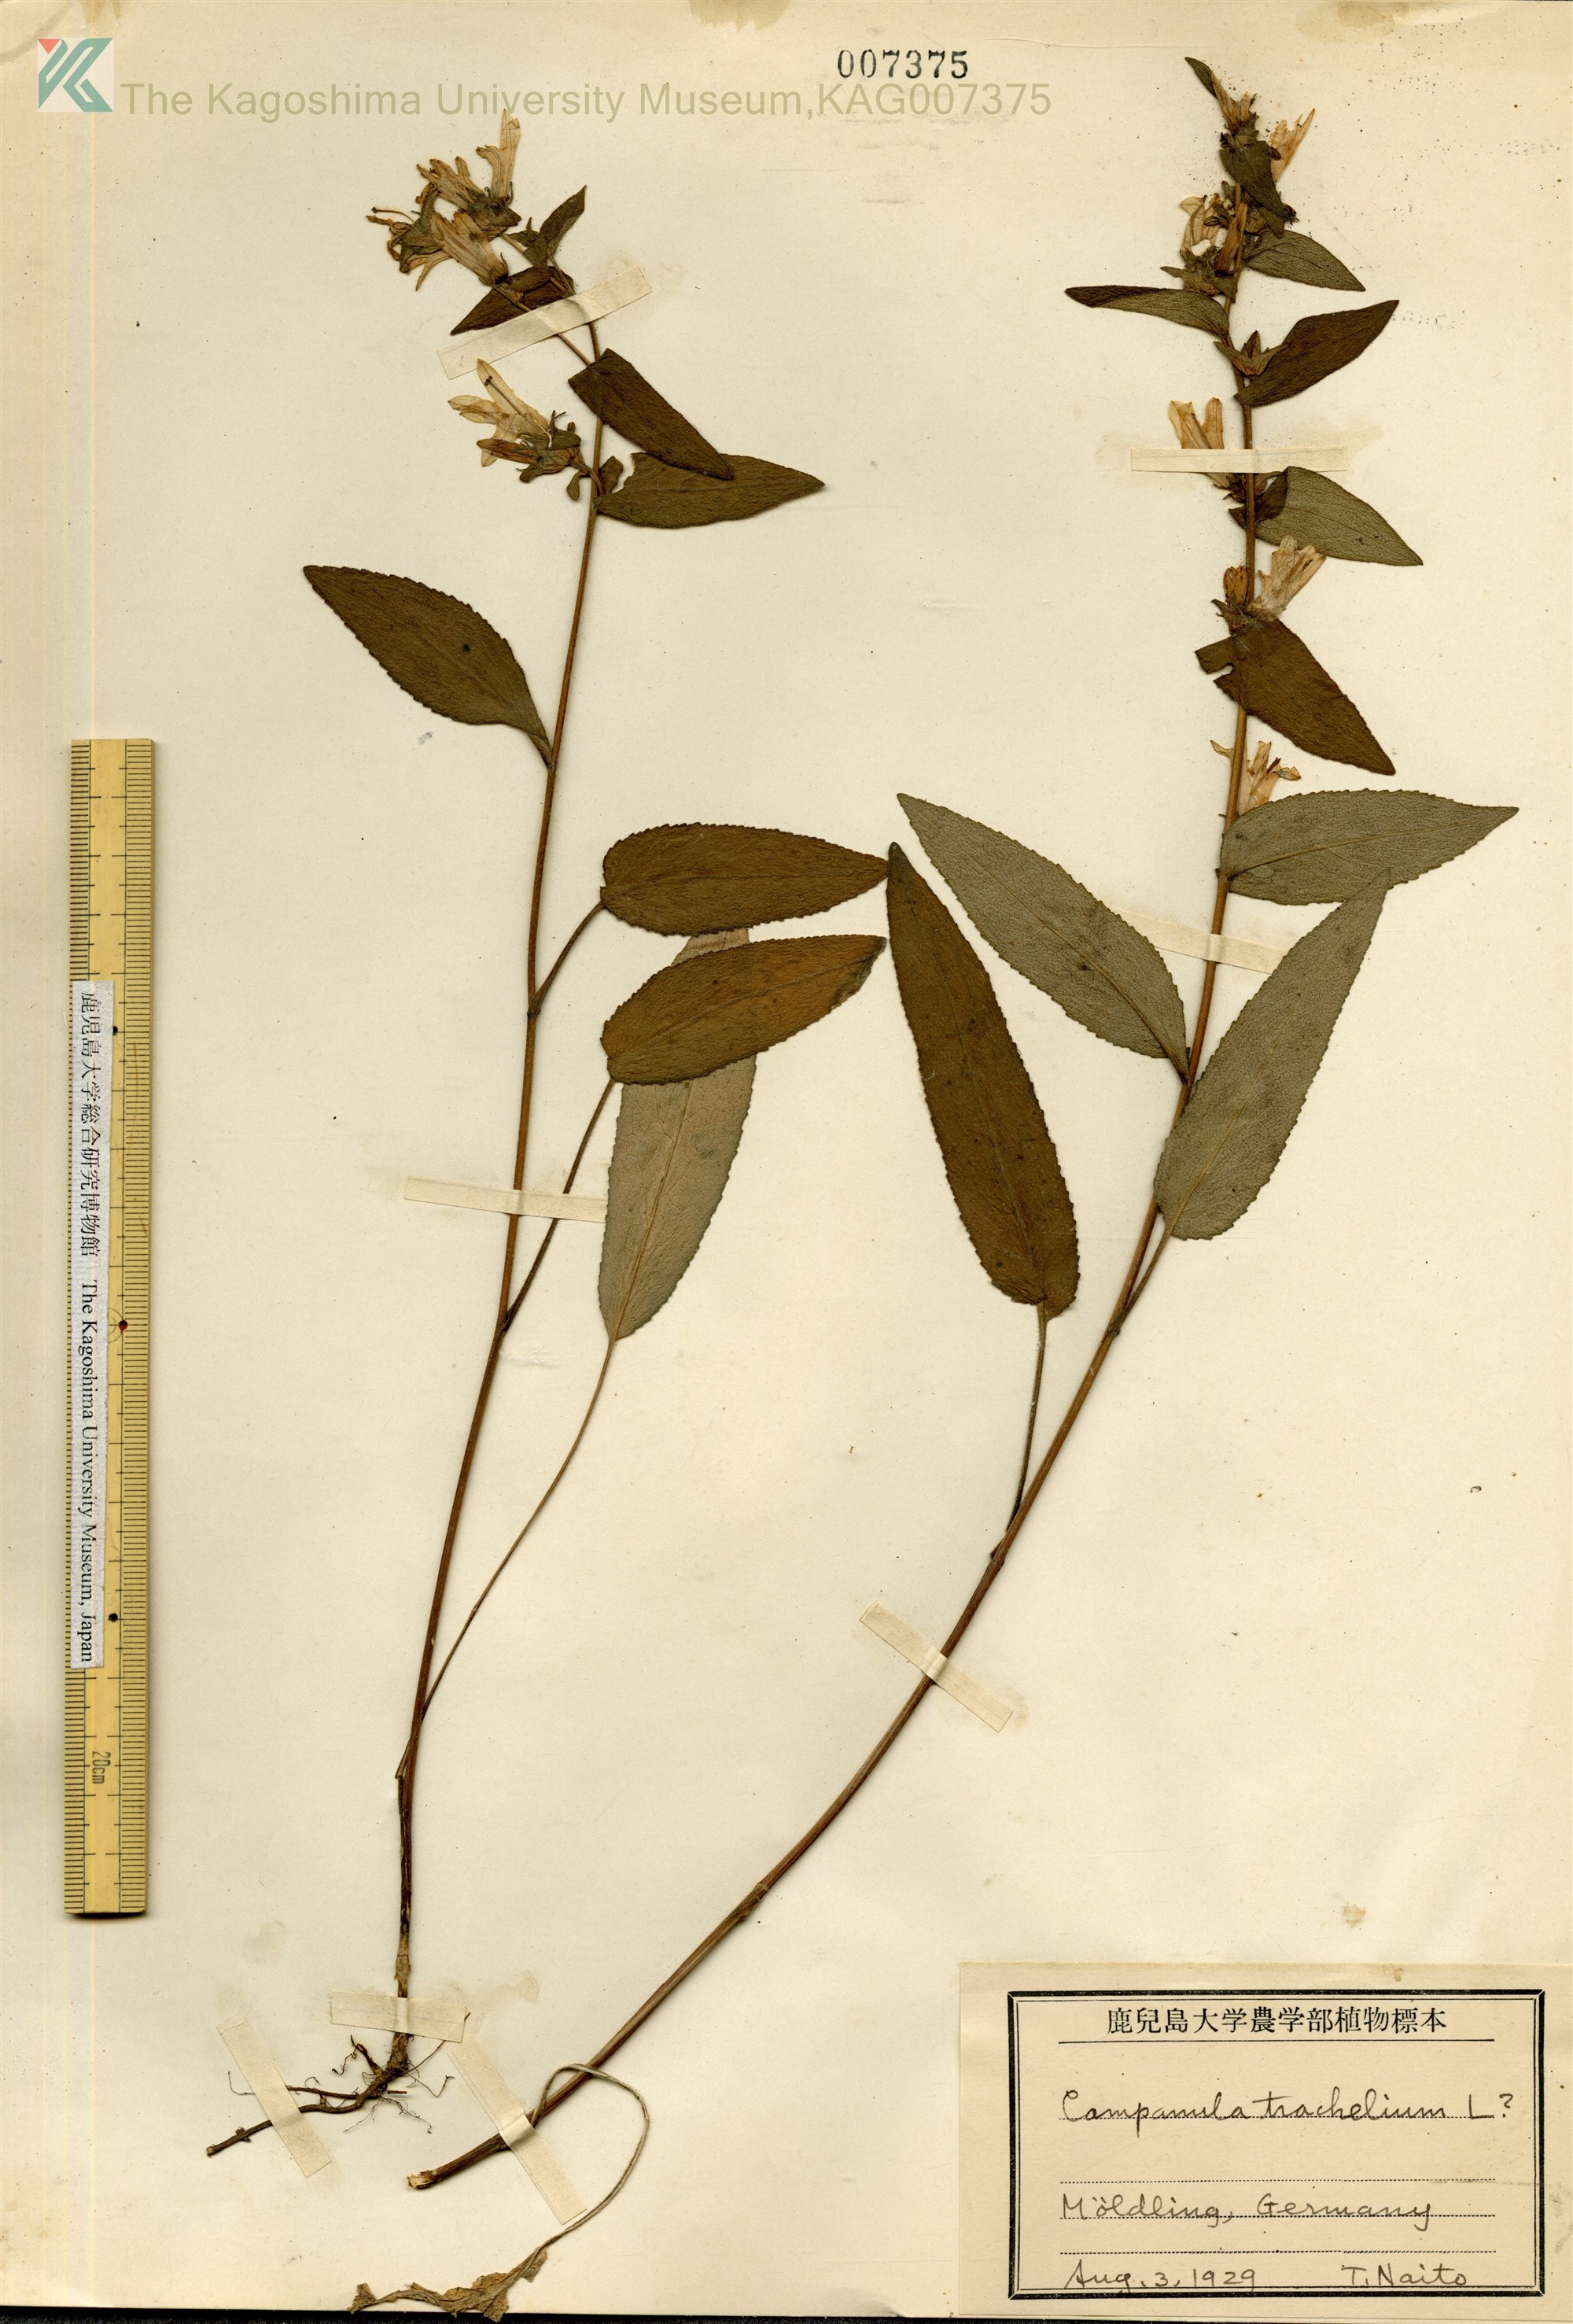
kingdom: Plantae
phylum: Tracheophyta
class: Magnoliopsida
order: Asterales
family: Campanulaceae
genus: Campanula
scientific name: Campanula trachelium
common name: Nettle-leaved bellflower
